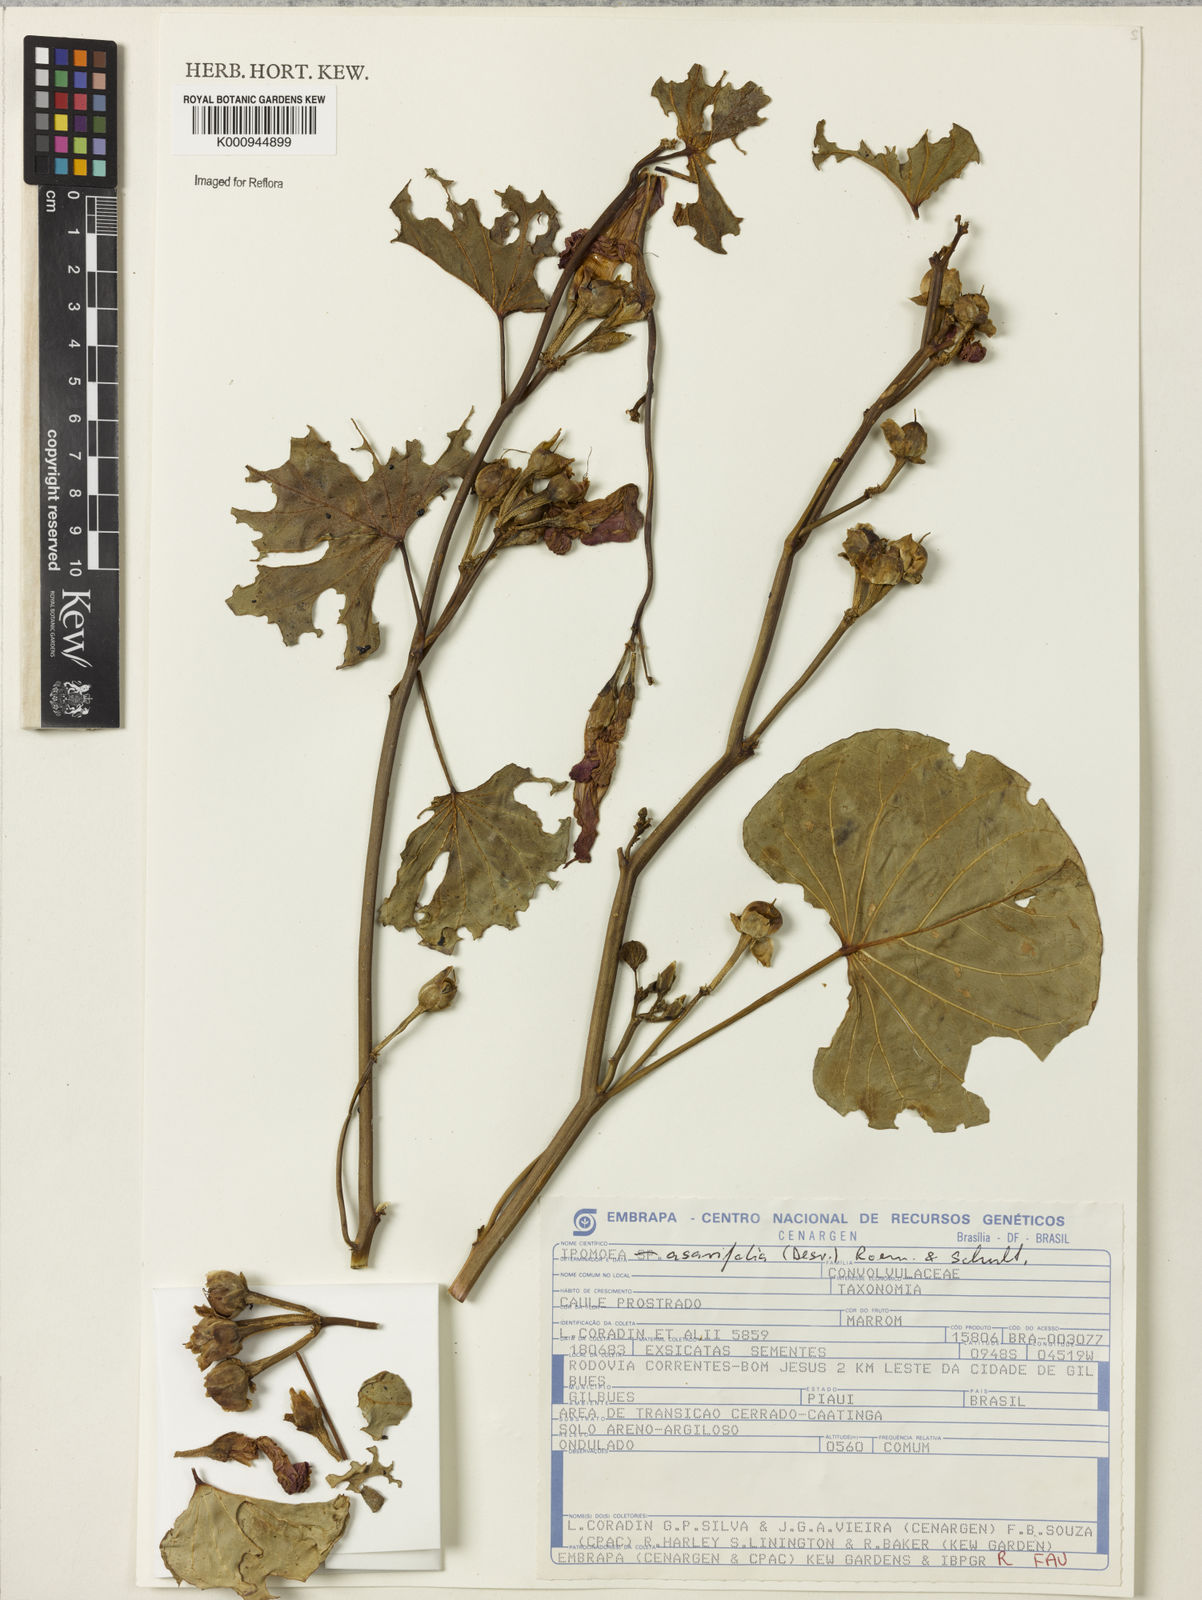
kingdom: Plantae
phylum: Tracheophyta
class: Magnoliopsida
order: Solanales
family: Convolvulaceae
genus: Ipomoea
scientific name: Ipomoea asarifolia
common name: Ginger-leaf morning-glory
